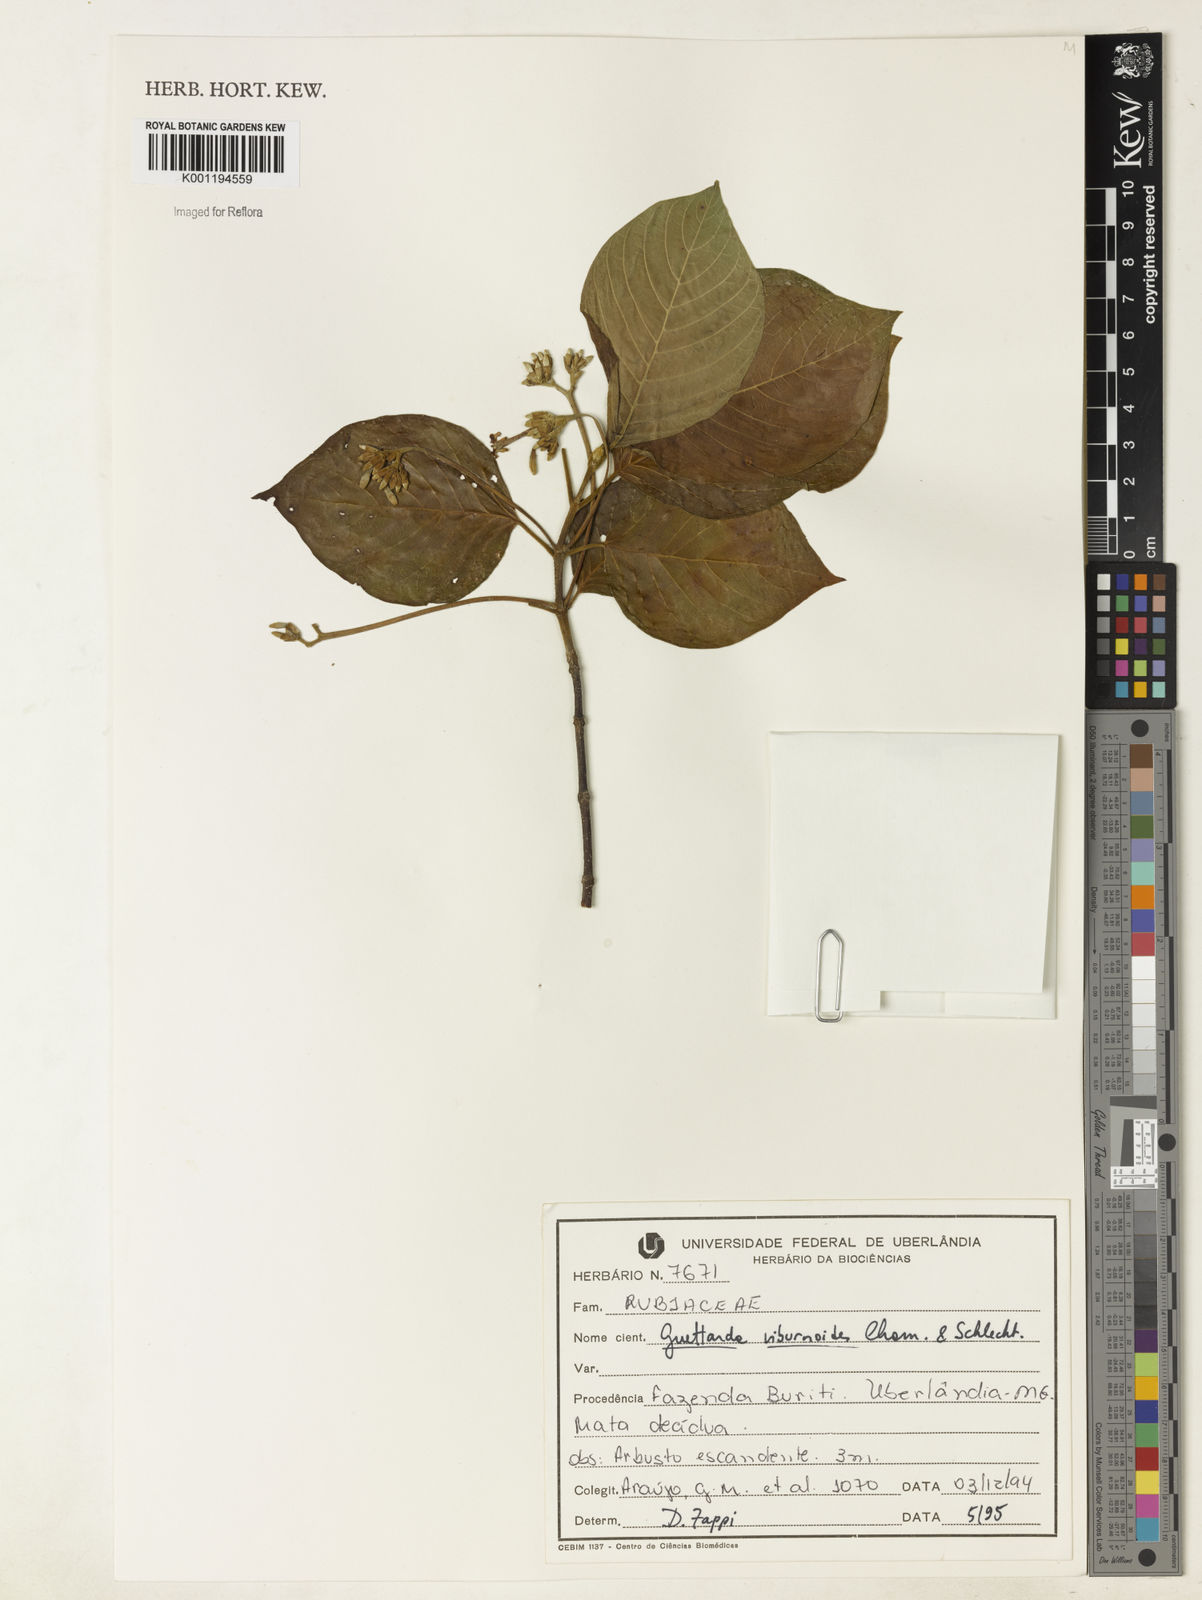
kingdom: Plantae
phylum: Tracheophyta
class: Magnoliopsida
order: Gentianales
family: Rubiaceae
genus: Guettarda
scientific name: Guettarda viburnoides
